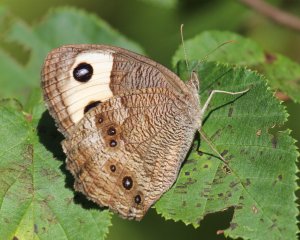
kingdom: Animalia
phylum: Arthropoda
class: Insecta
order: Lepidoptera
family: Nymphalidae
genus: Cercyonis
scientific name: Cercyonis pegala
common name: Common Wood-Nymph
